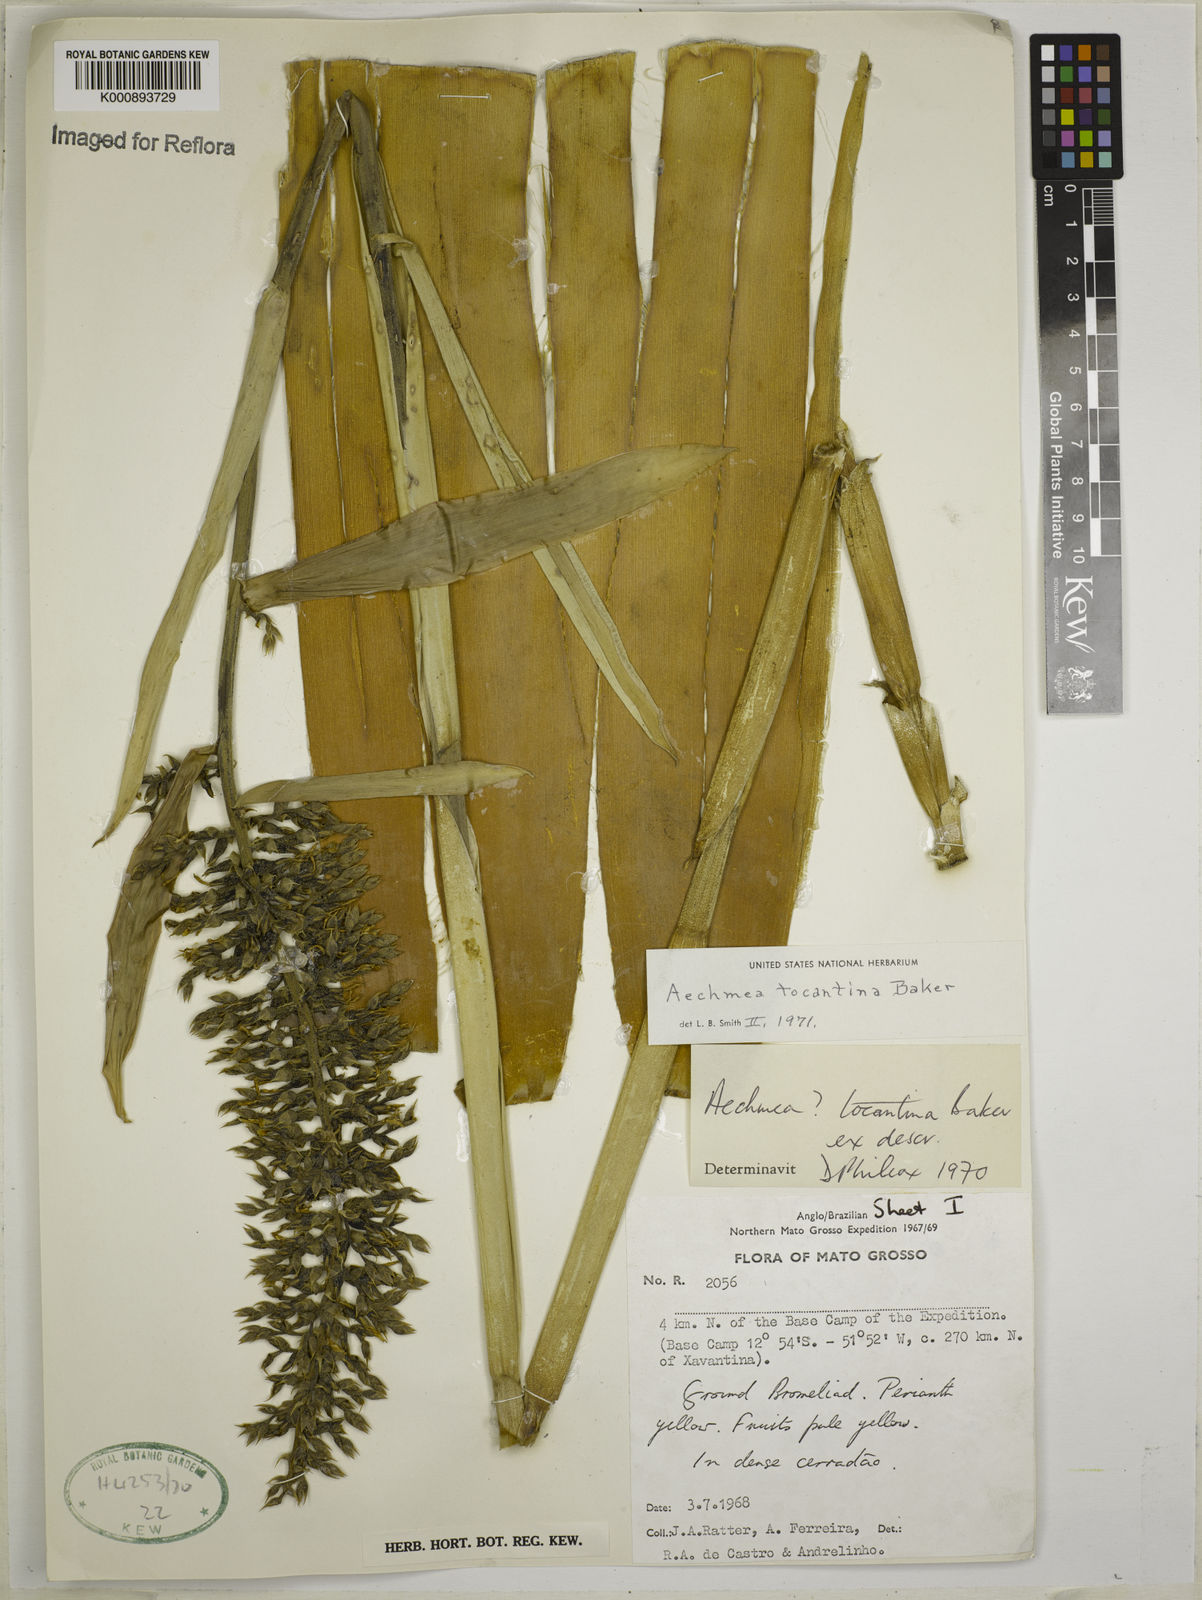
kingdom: Plantae
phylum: Tracheophyta
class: Liliopsida
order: Poales
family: Bromeliaceae
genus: Aechmea
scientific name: Aechmea tocantina
